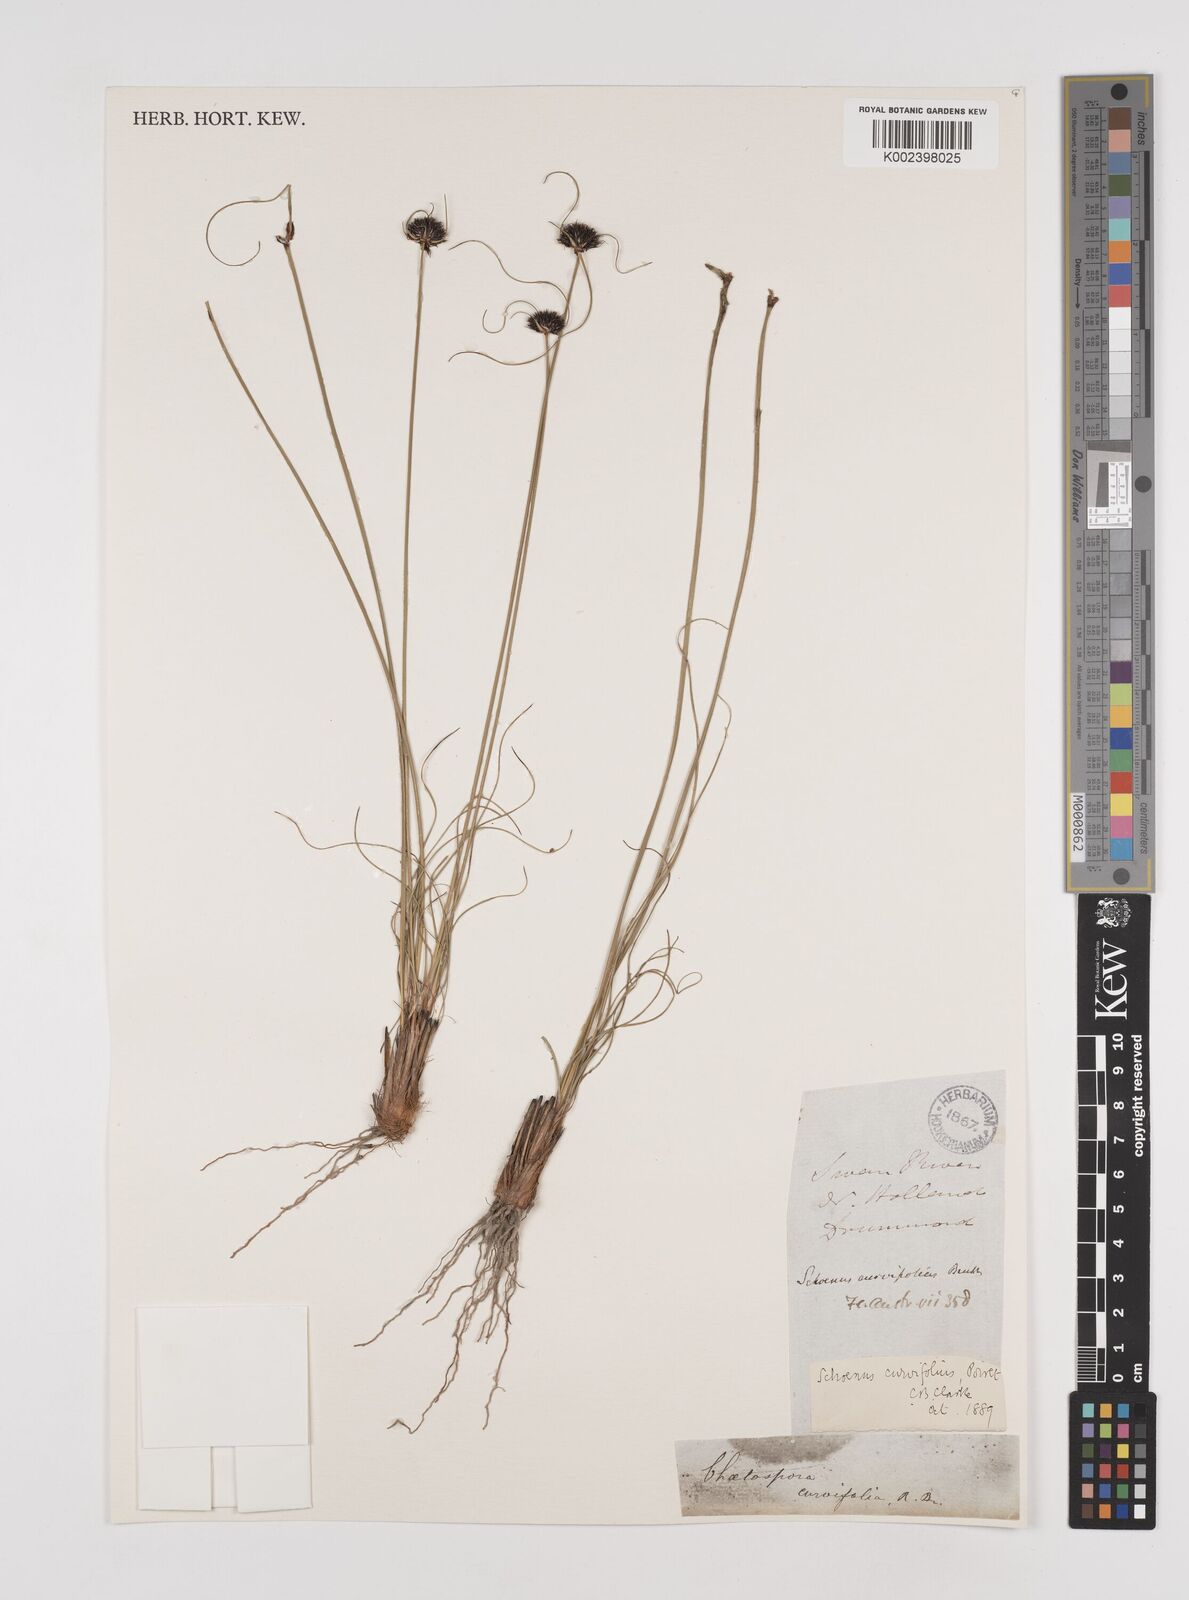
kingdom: Plantae
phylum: Tracheophyta
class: Liliopsida
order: Poales
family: Cyperaceae
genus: Schoenus
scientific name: Schoenus curvifolius
